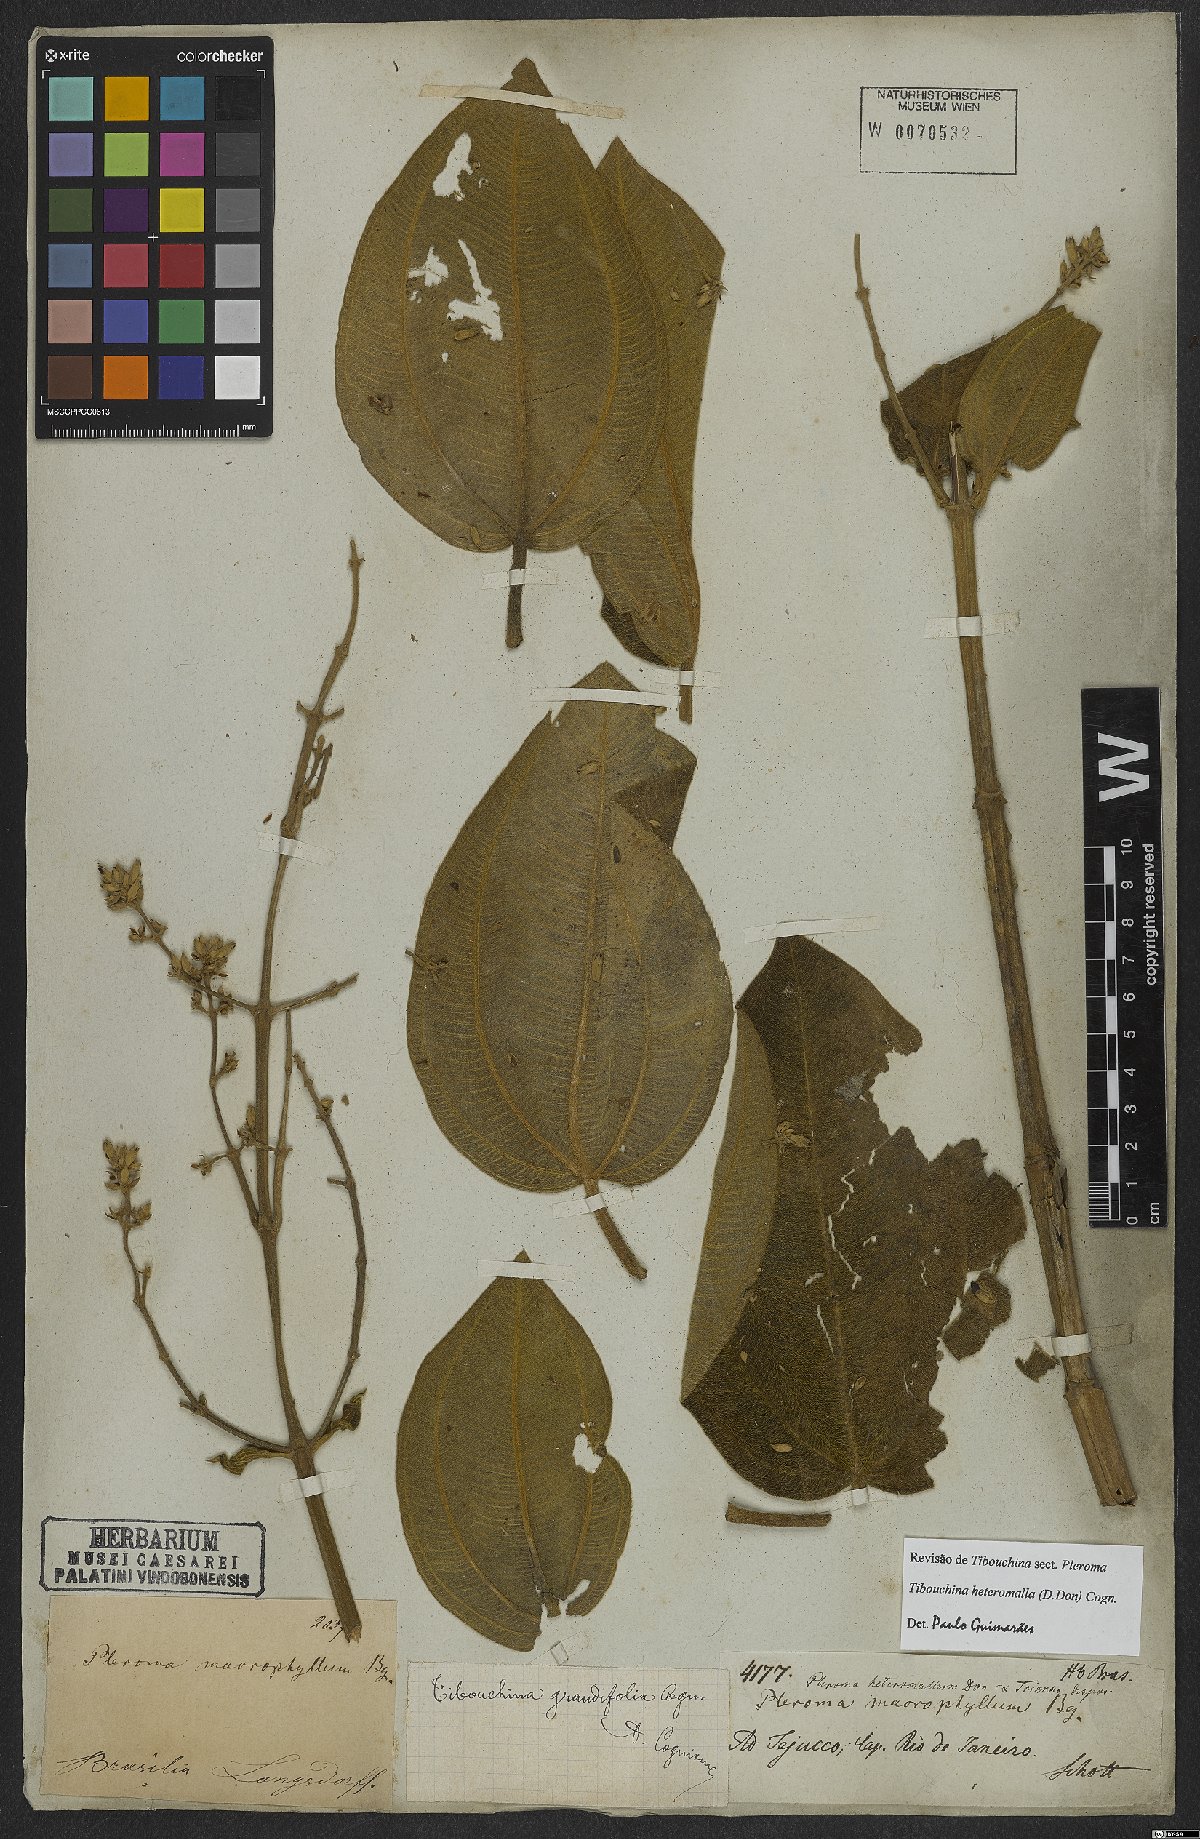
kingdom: Plantae
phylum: Tracheophyta
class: Magnoliopsida
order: Myrtales
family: Melastomataceae
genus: Pleroma
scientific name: Pleroma heteromallum
